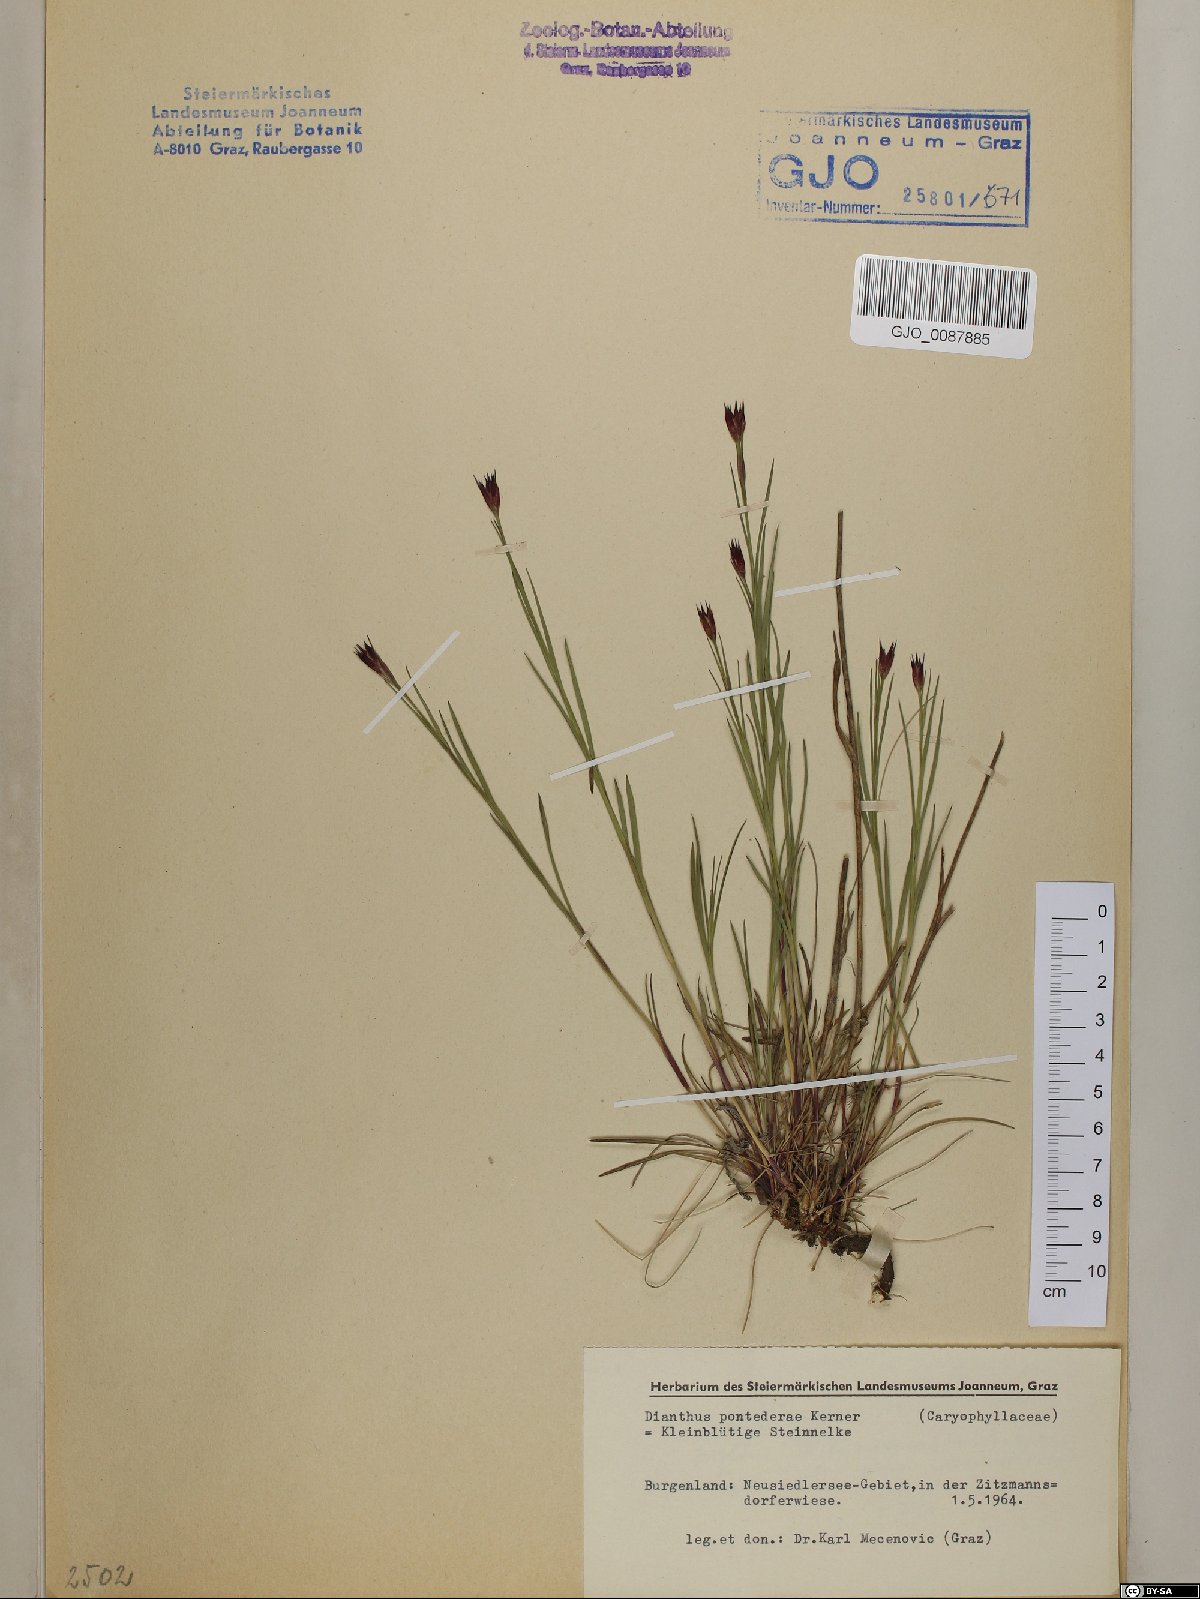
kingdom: Plantae
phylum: Tracheophyta
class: Magnoliopsida
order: Caryophyllales
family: Caryophyllaceae
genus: Dianthus
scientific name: Dianthus pontederae
